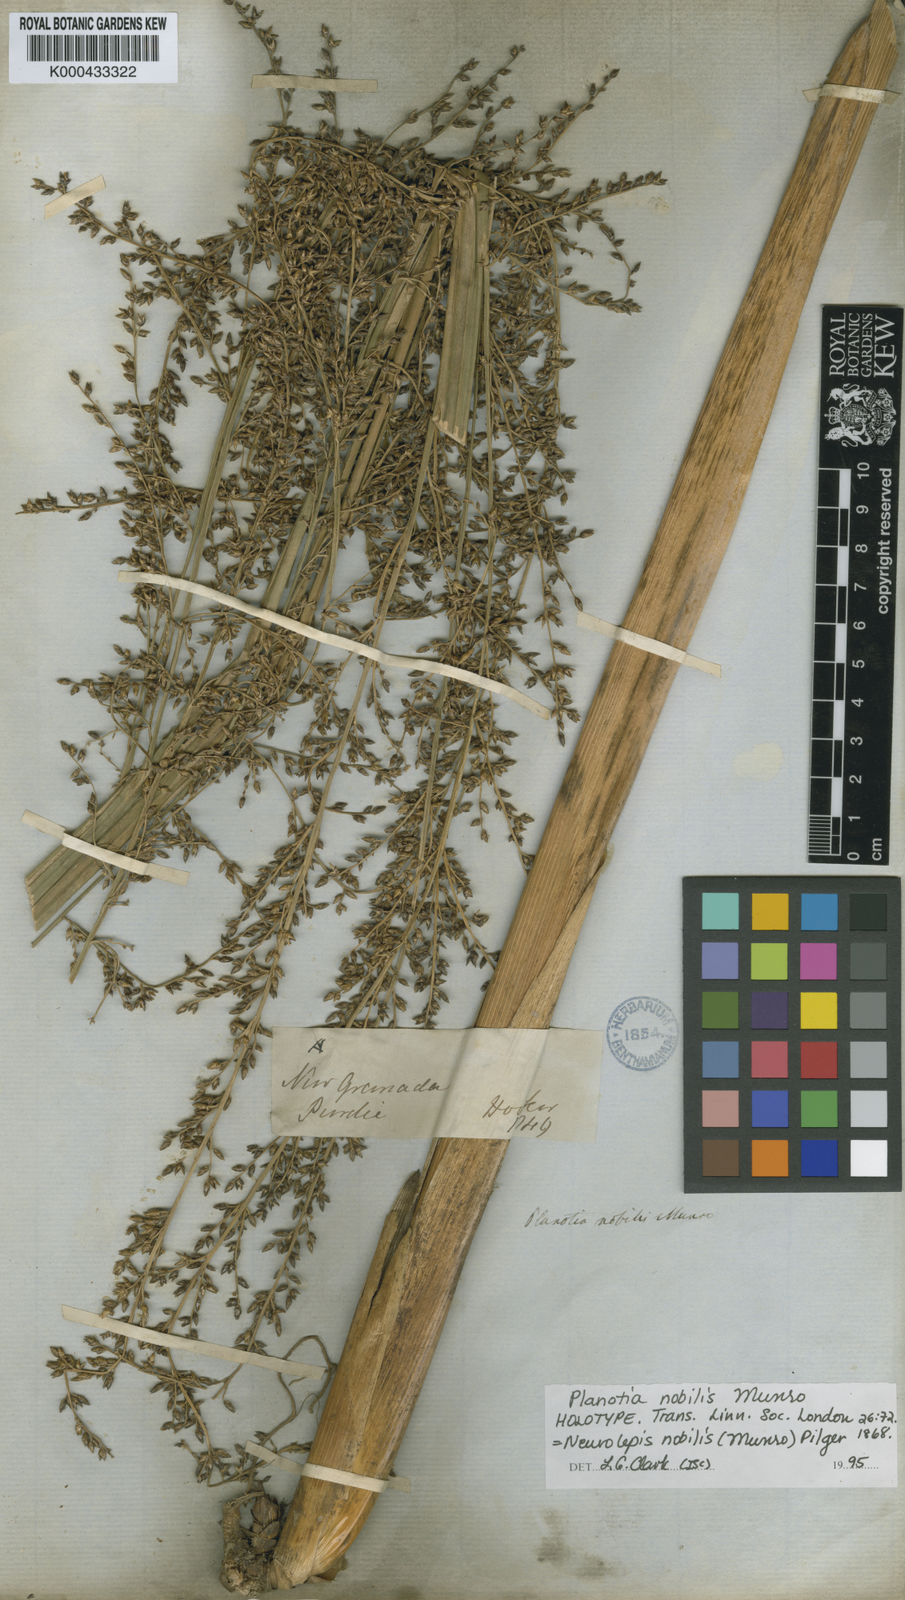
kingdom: Plantae
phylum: Tracheophyta
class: Liliopsida
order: Poales
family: Poaceae
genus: Chusquea
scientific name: Chusquea nobilis
